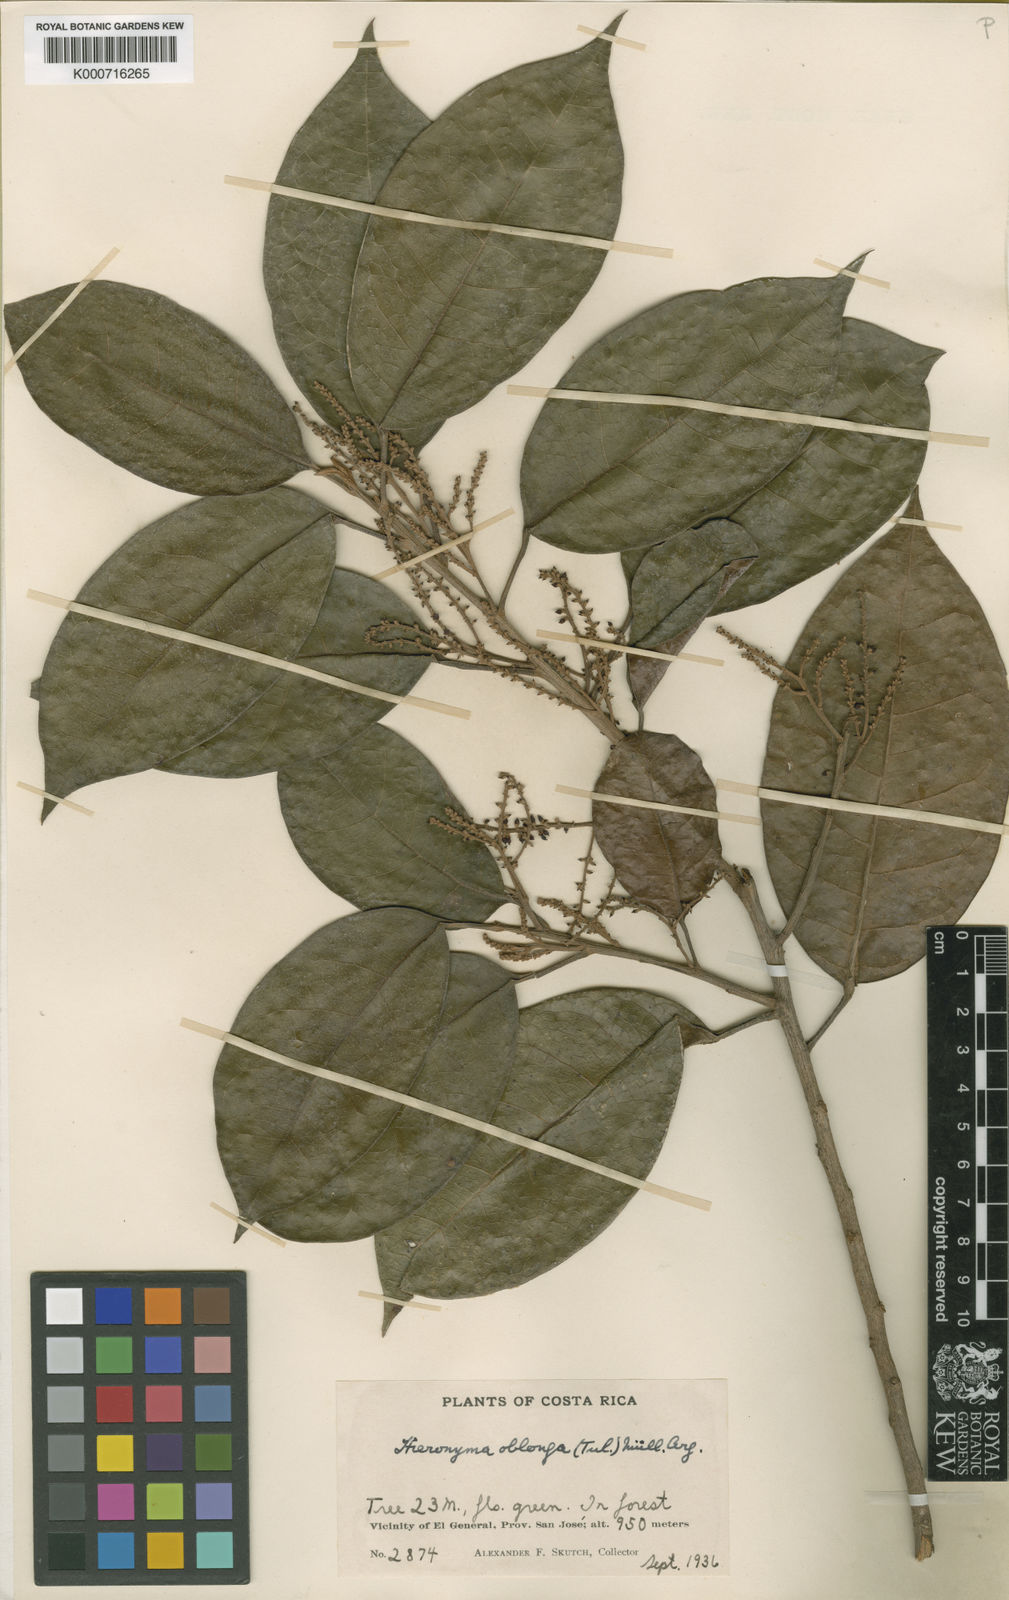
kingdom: Plantae
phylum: Tracheophyta
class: Magnoliopsida
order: Malpighiales
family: Phyllanthaceae
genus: Hieronyma
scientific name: Hieronyma
